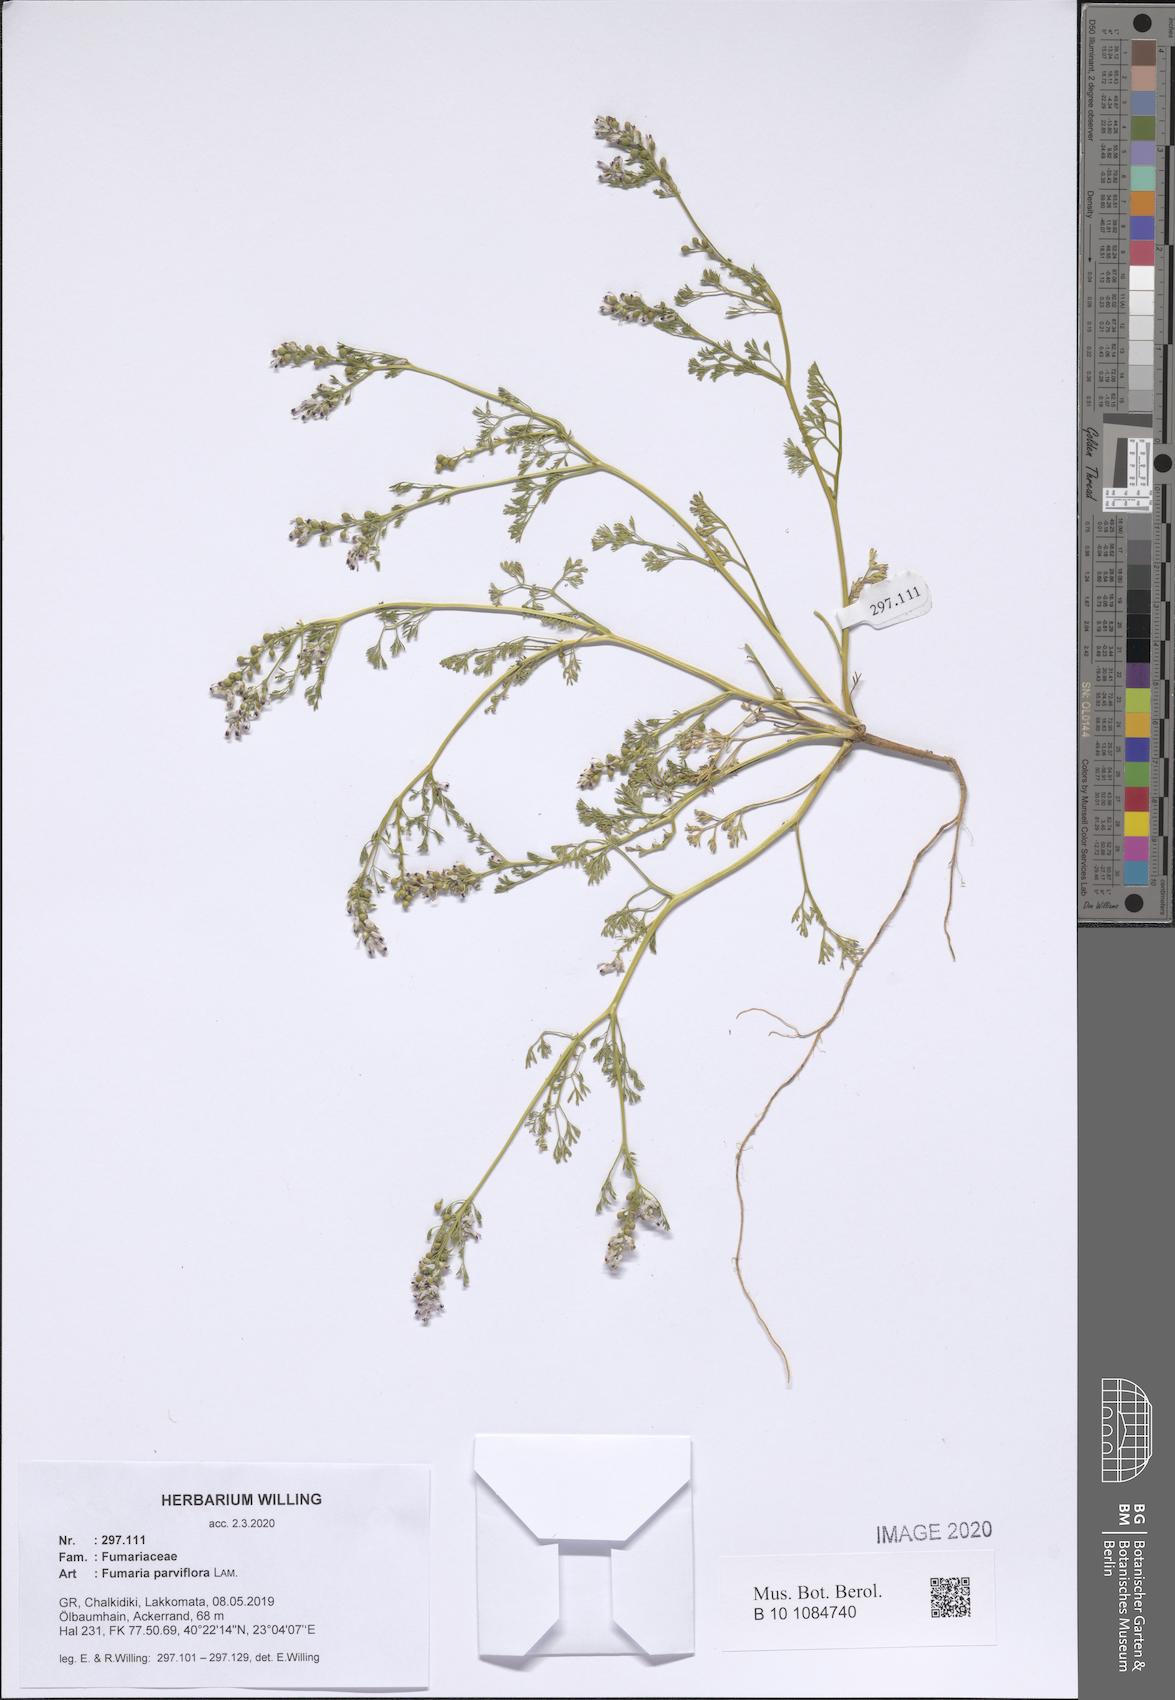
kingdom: Plantae
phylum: Tracheophyta
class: Magnoliopsida
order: Ranunculales
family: Papaveraceae
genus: Fumaria
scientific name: Fumaria parviflora
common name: Fine-leaved fumitory
